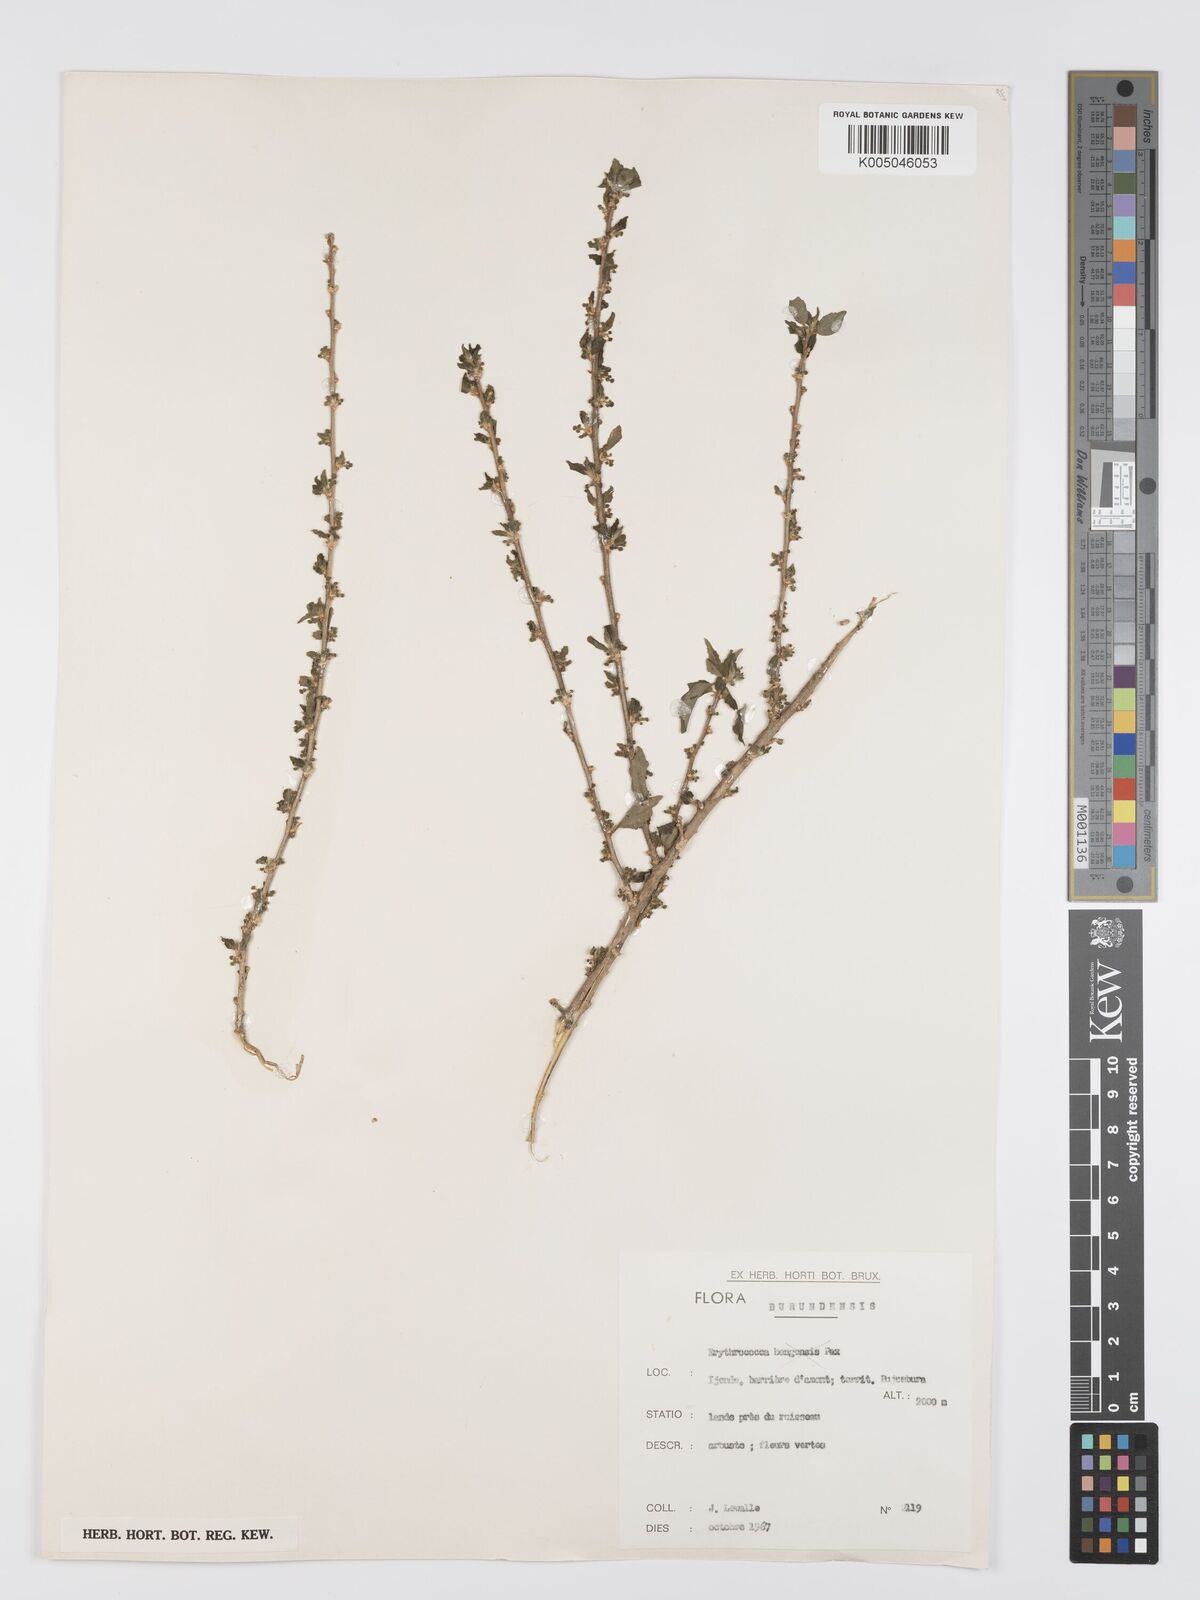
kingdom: Plantae
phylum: Tracheophyta
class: Magnoliopsida
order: Malpighiales
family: Euphorbiaceae
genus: Erythrococca
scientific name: Erythrococca
